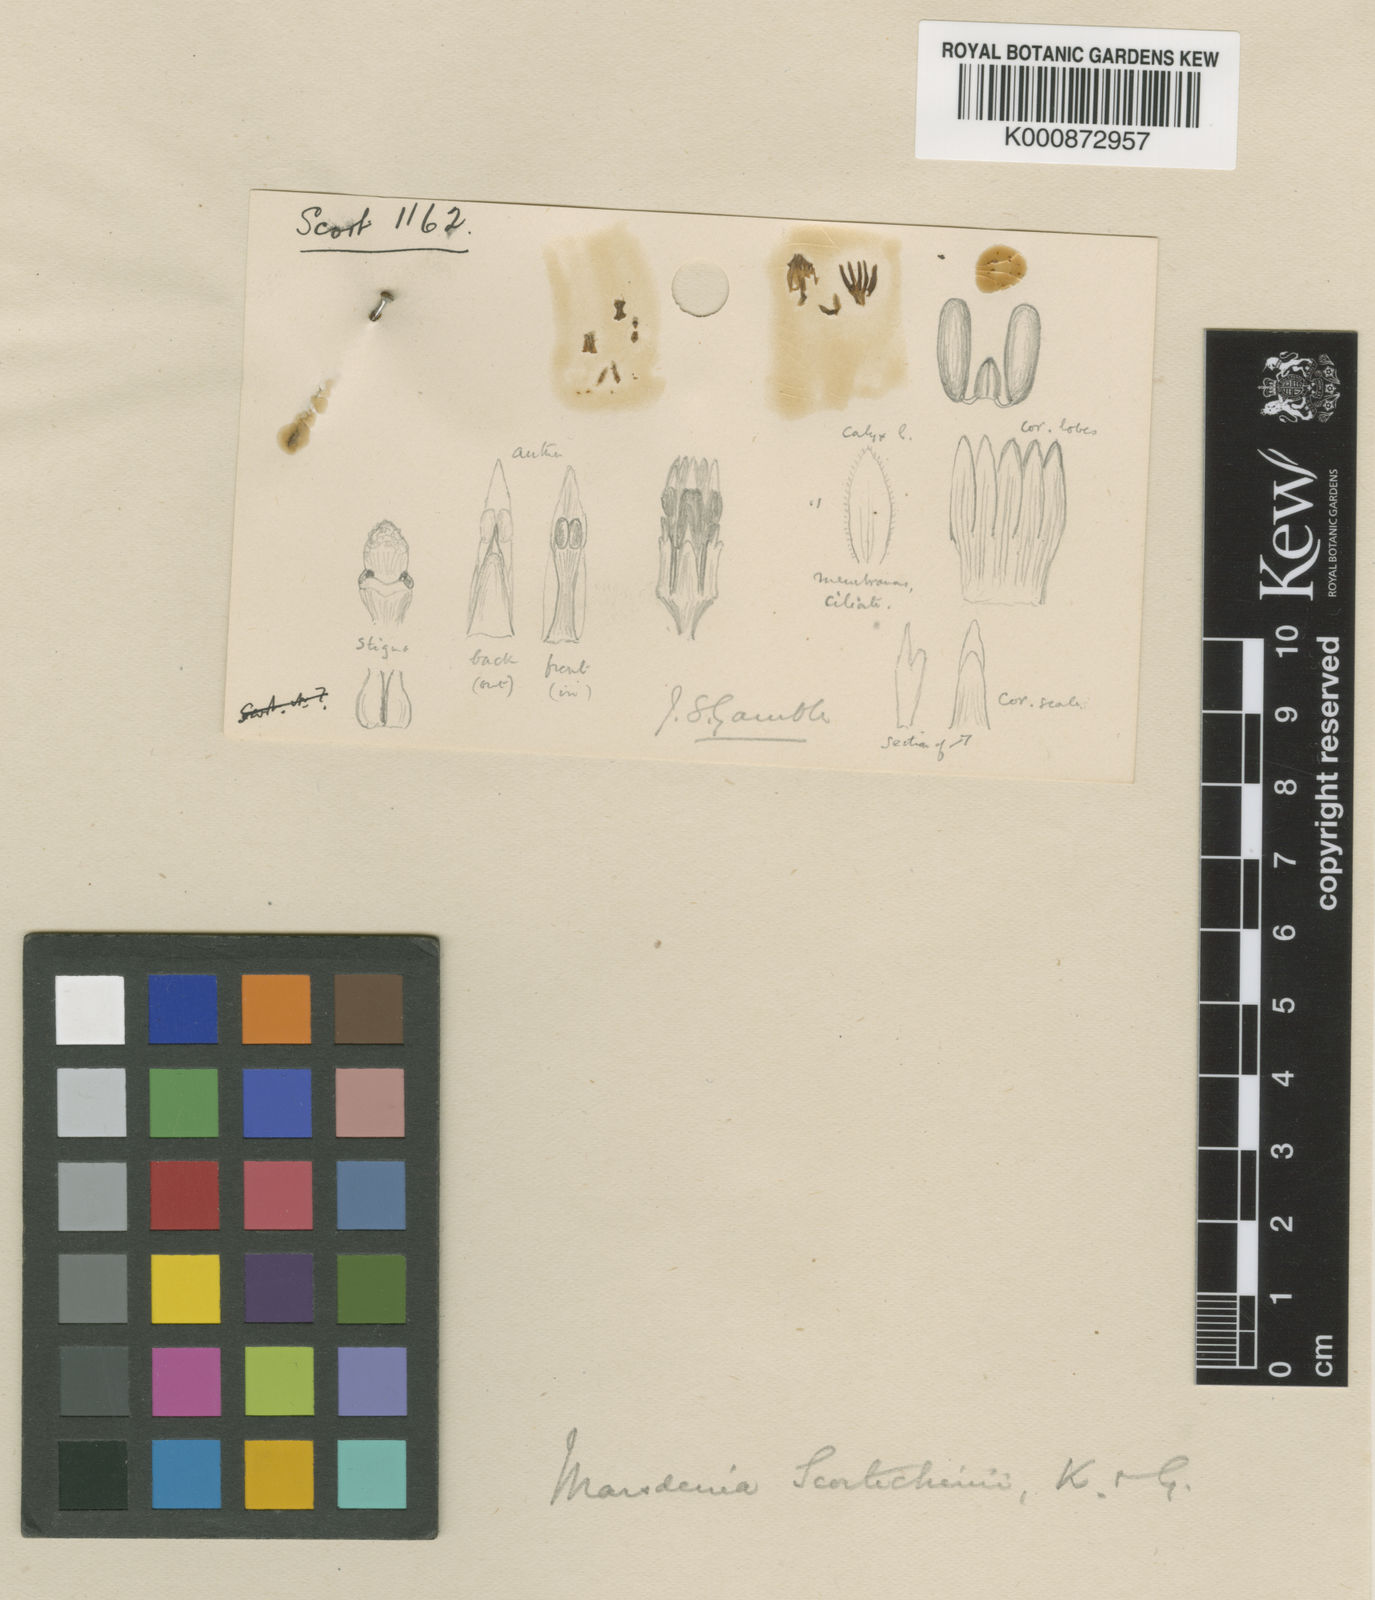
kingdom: Plantae
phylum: Tracheophyta
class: Magnoliopsida
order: Gentianales
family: Apocynaceae
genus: Marsdenia
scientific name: Marsdenia scortechinii
